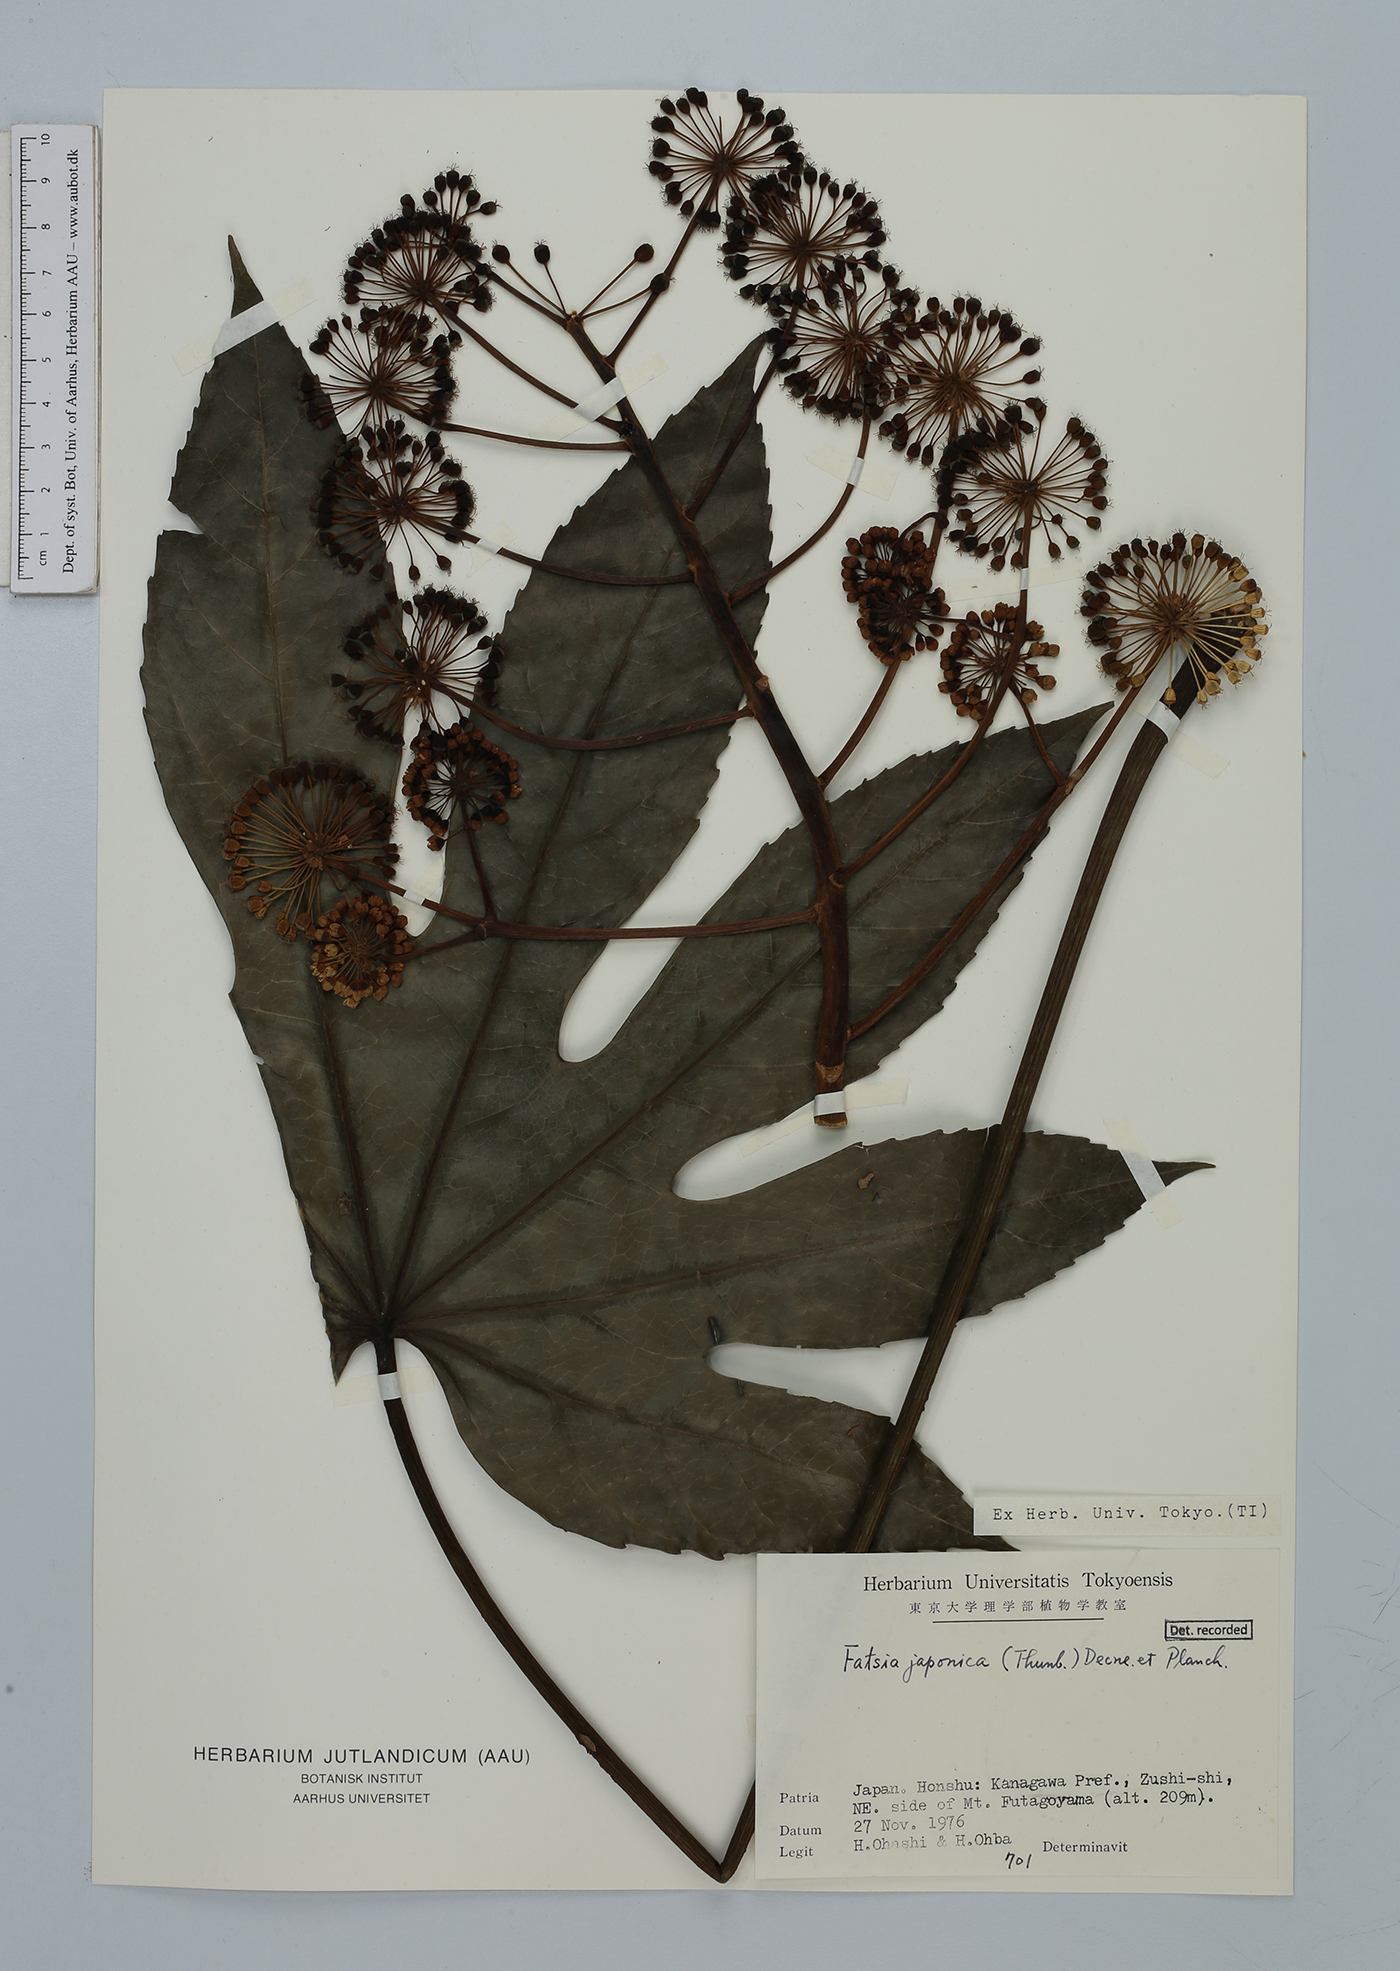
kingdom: Plantae
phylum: Tracheophyta
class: Magnoliopsida
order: Apiales
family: Araliaceae
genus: Fatsia
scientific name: Fatsia japonica
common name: Fatsia
